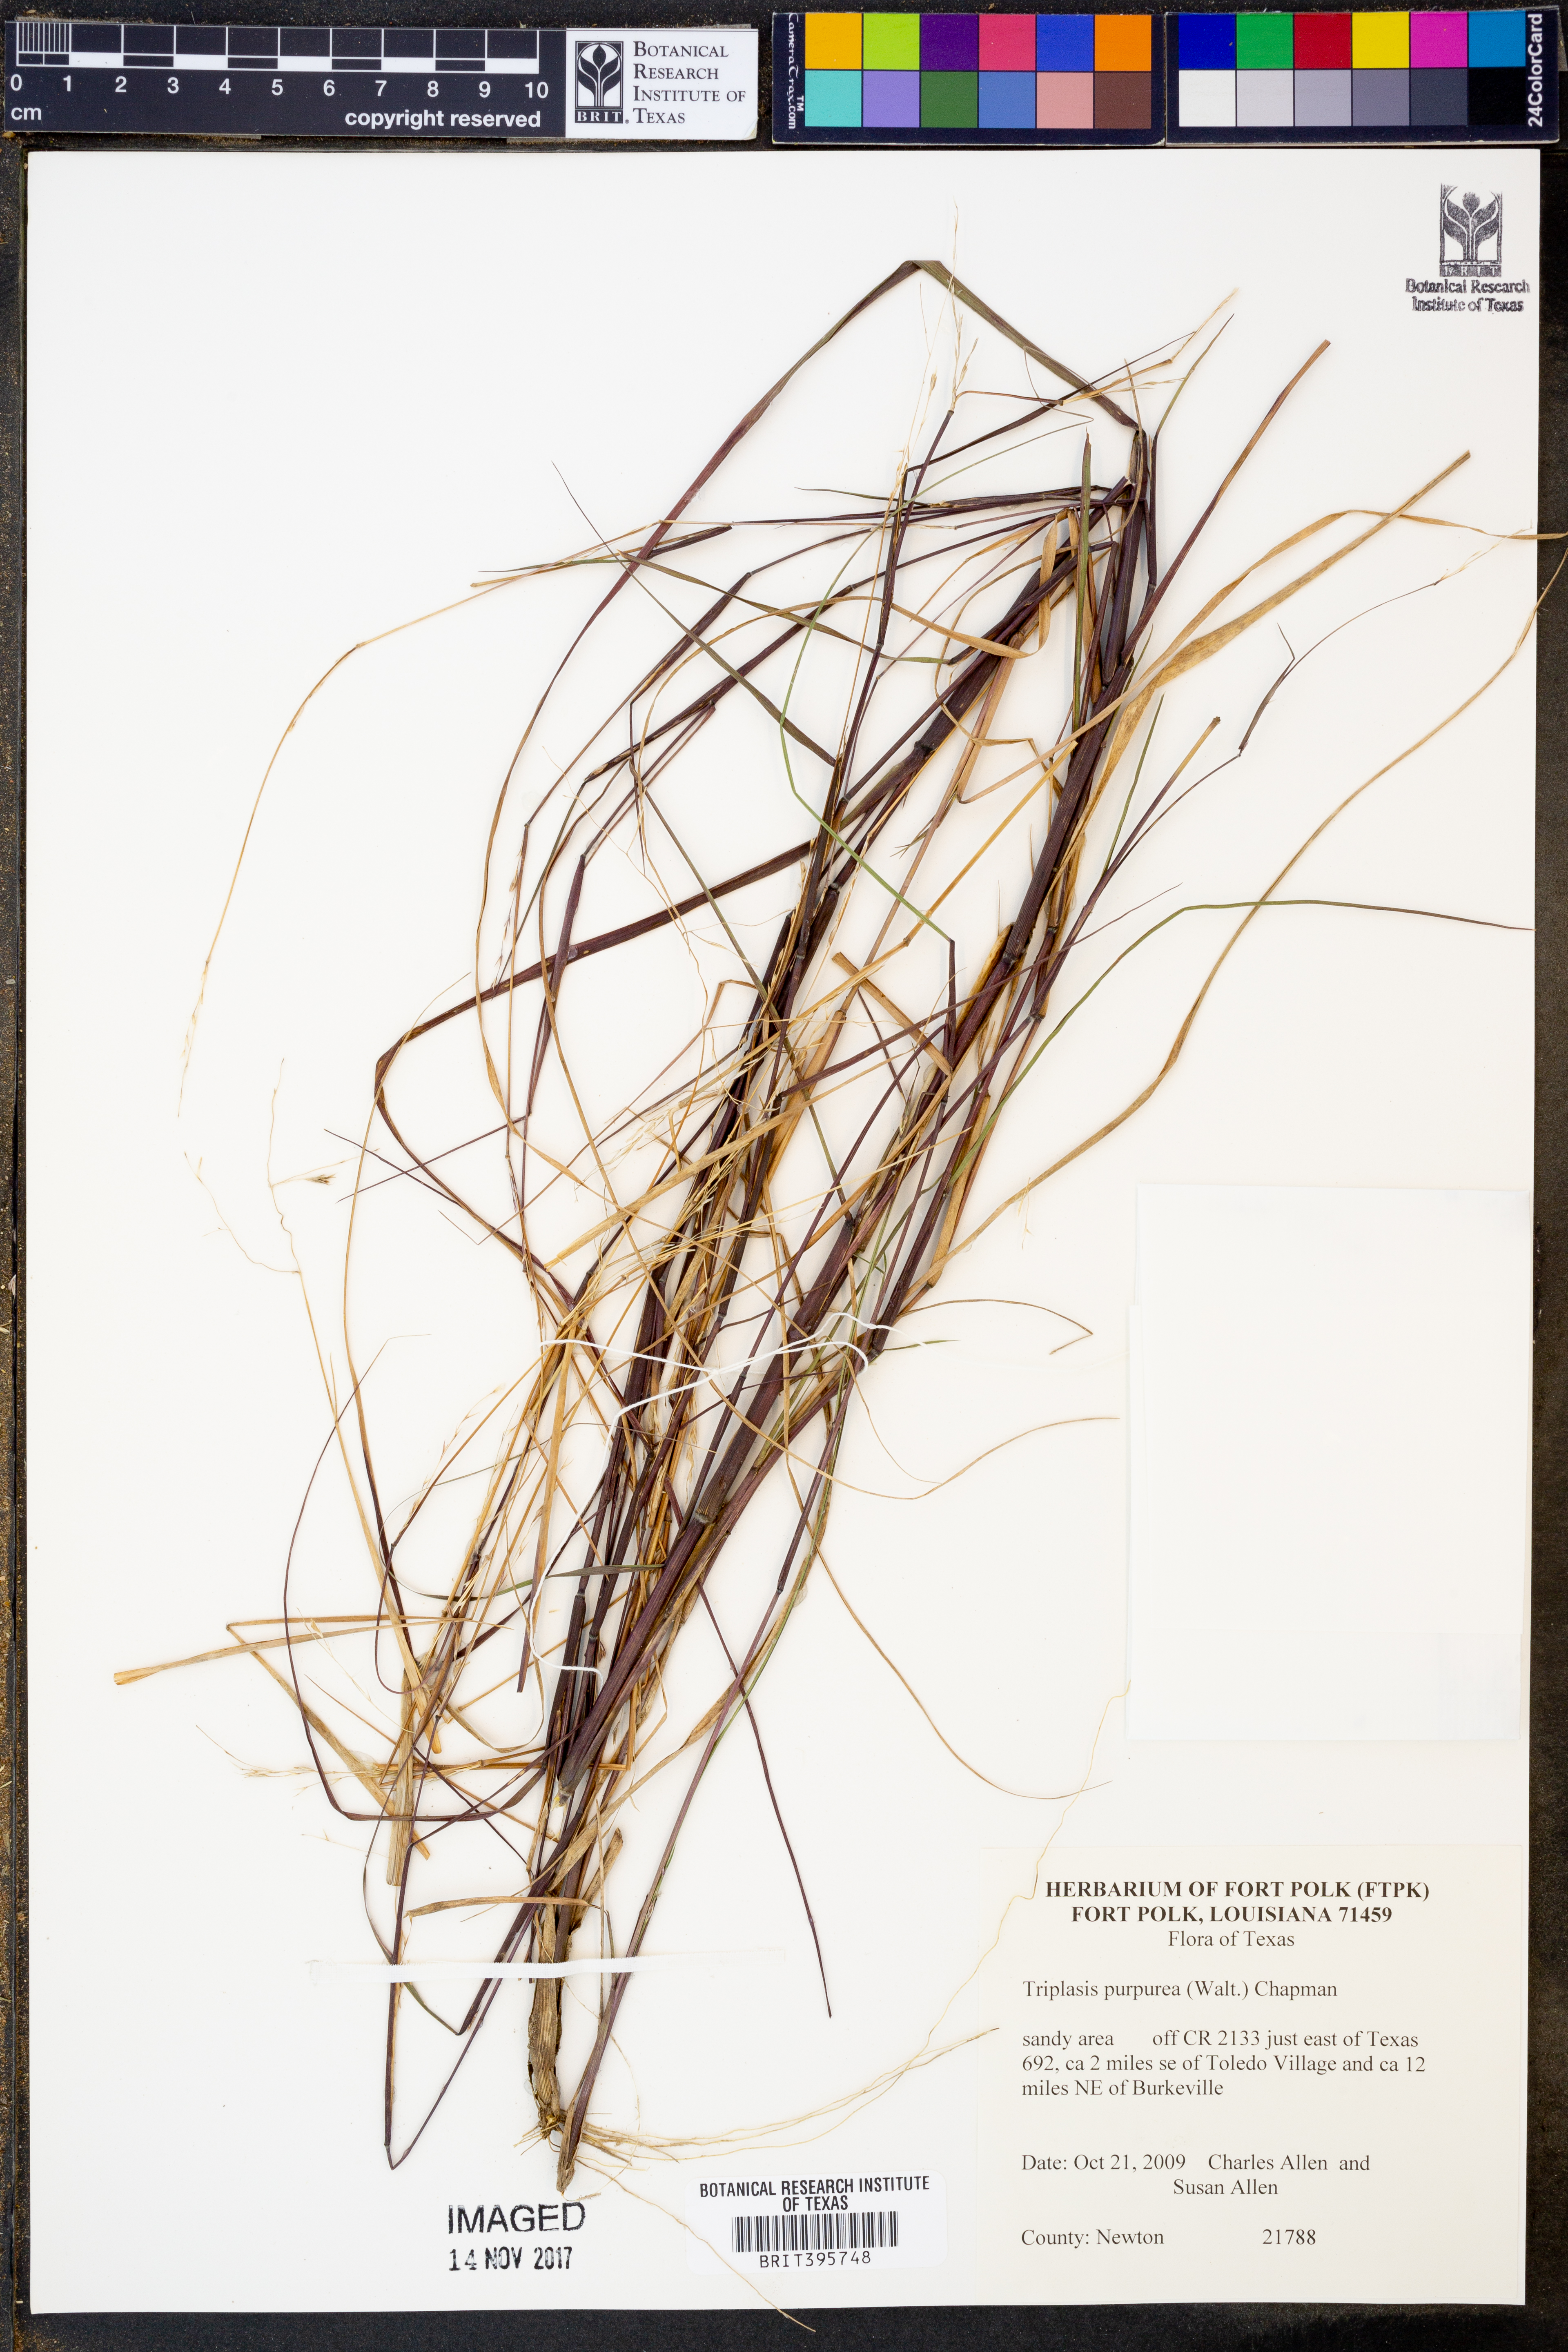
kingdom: Plantae
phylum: Tracheophyta
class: Liliopsida
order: Poales
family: Poaceae
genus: Triplasis
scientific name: Triplasis purpurea
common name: Purple sand grass
